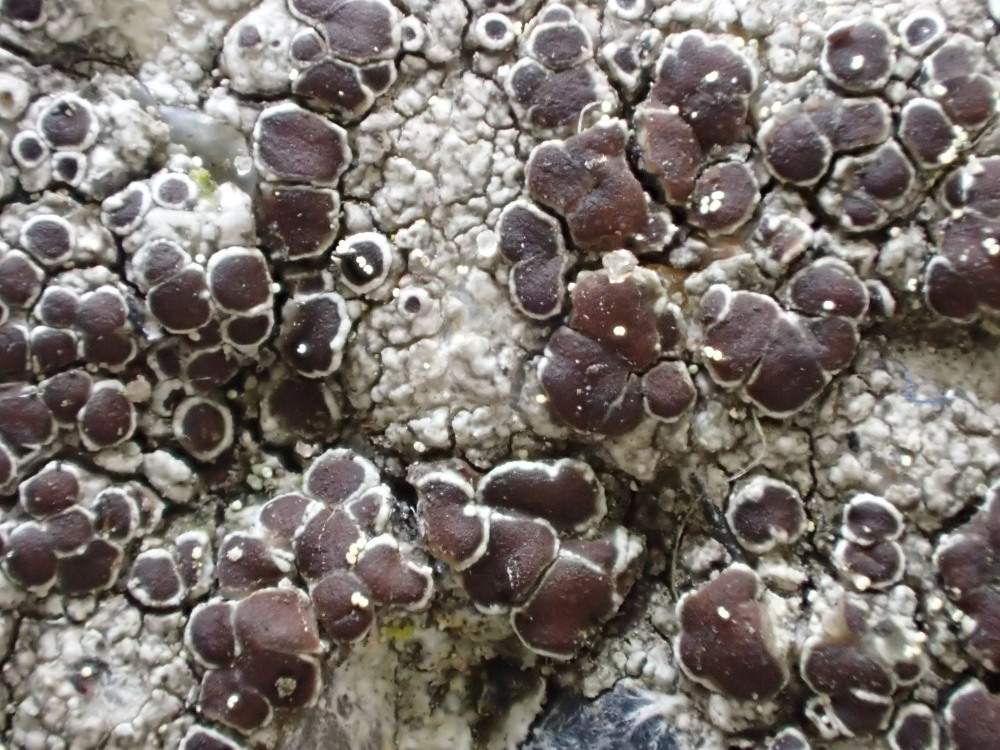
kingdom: Fungi
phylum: Ascomycota
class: Lecanoromycetes
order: Lecanorales
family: Lecanoraceae
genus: Lecanora
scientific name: Lecanora campestris
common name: mur-kantskivelav
